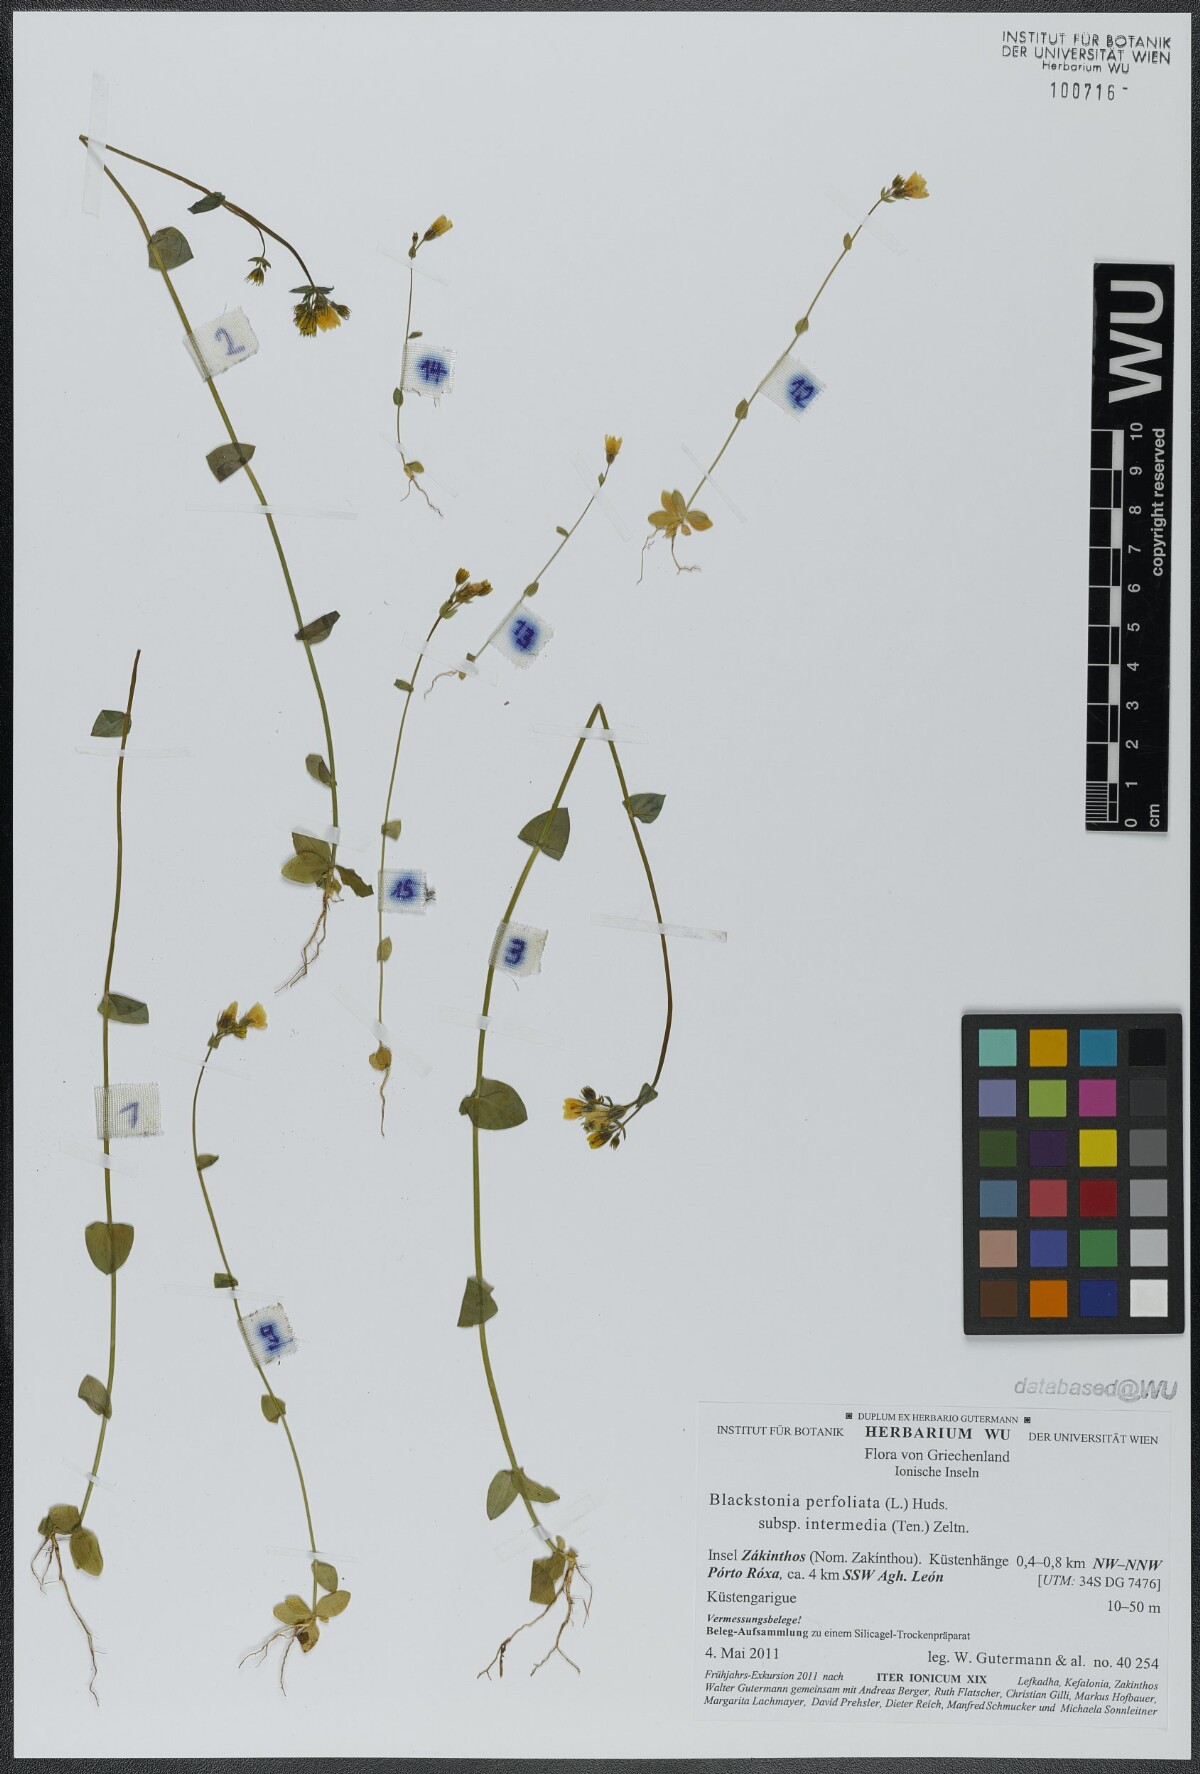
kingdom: Plantae
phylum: Tracheophyta
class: Magnoliopsida
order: Gentianales
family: Gentianaceae
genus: Blackstonia
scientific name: Blackstonia perfoliata
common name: Yellow-wort
